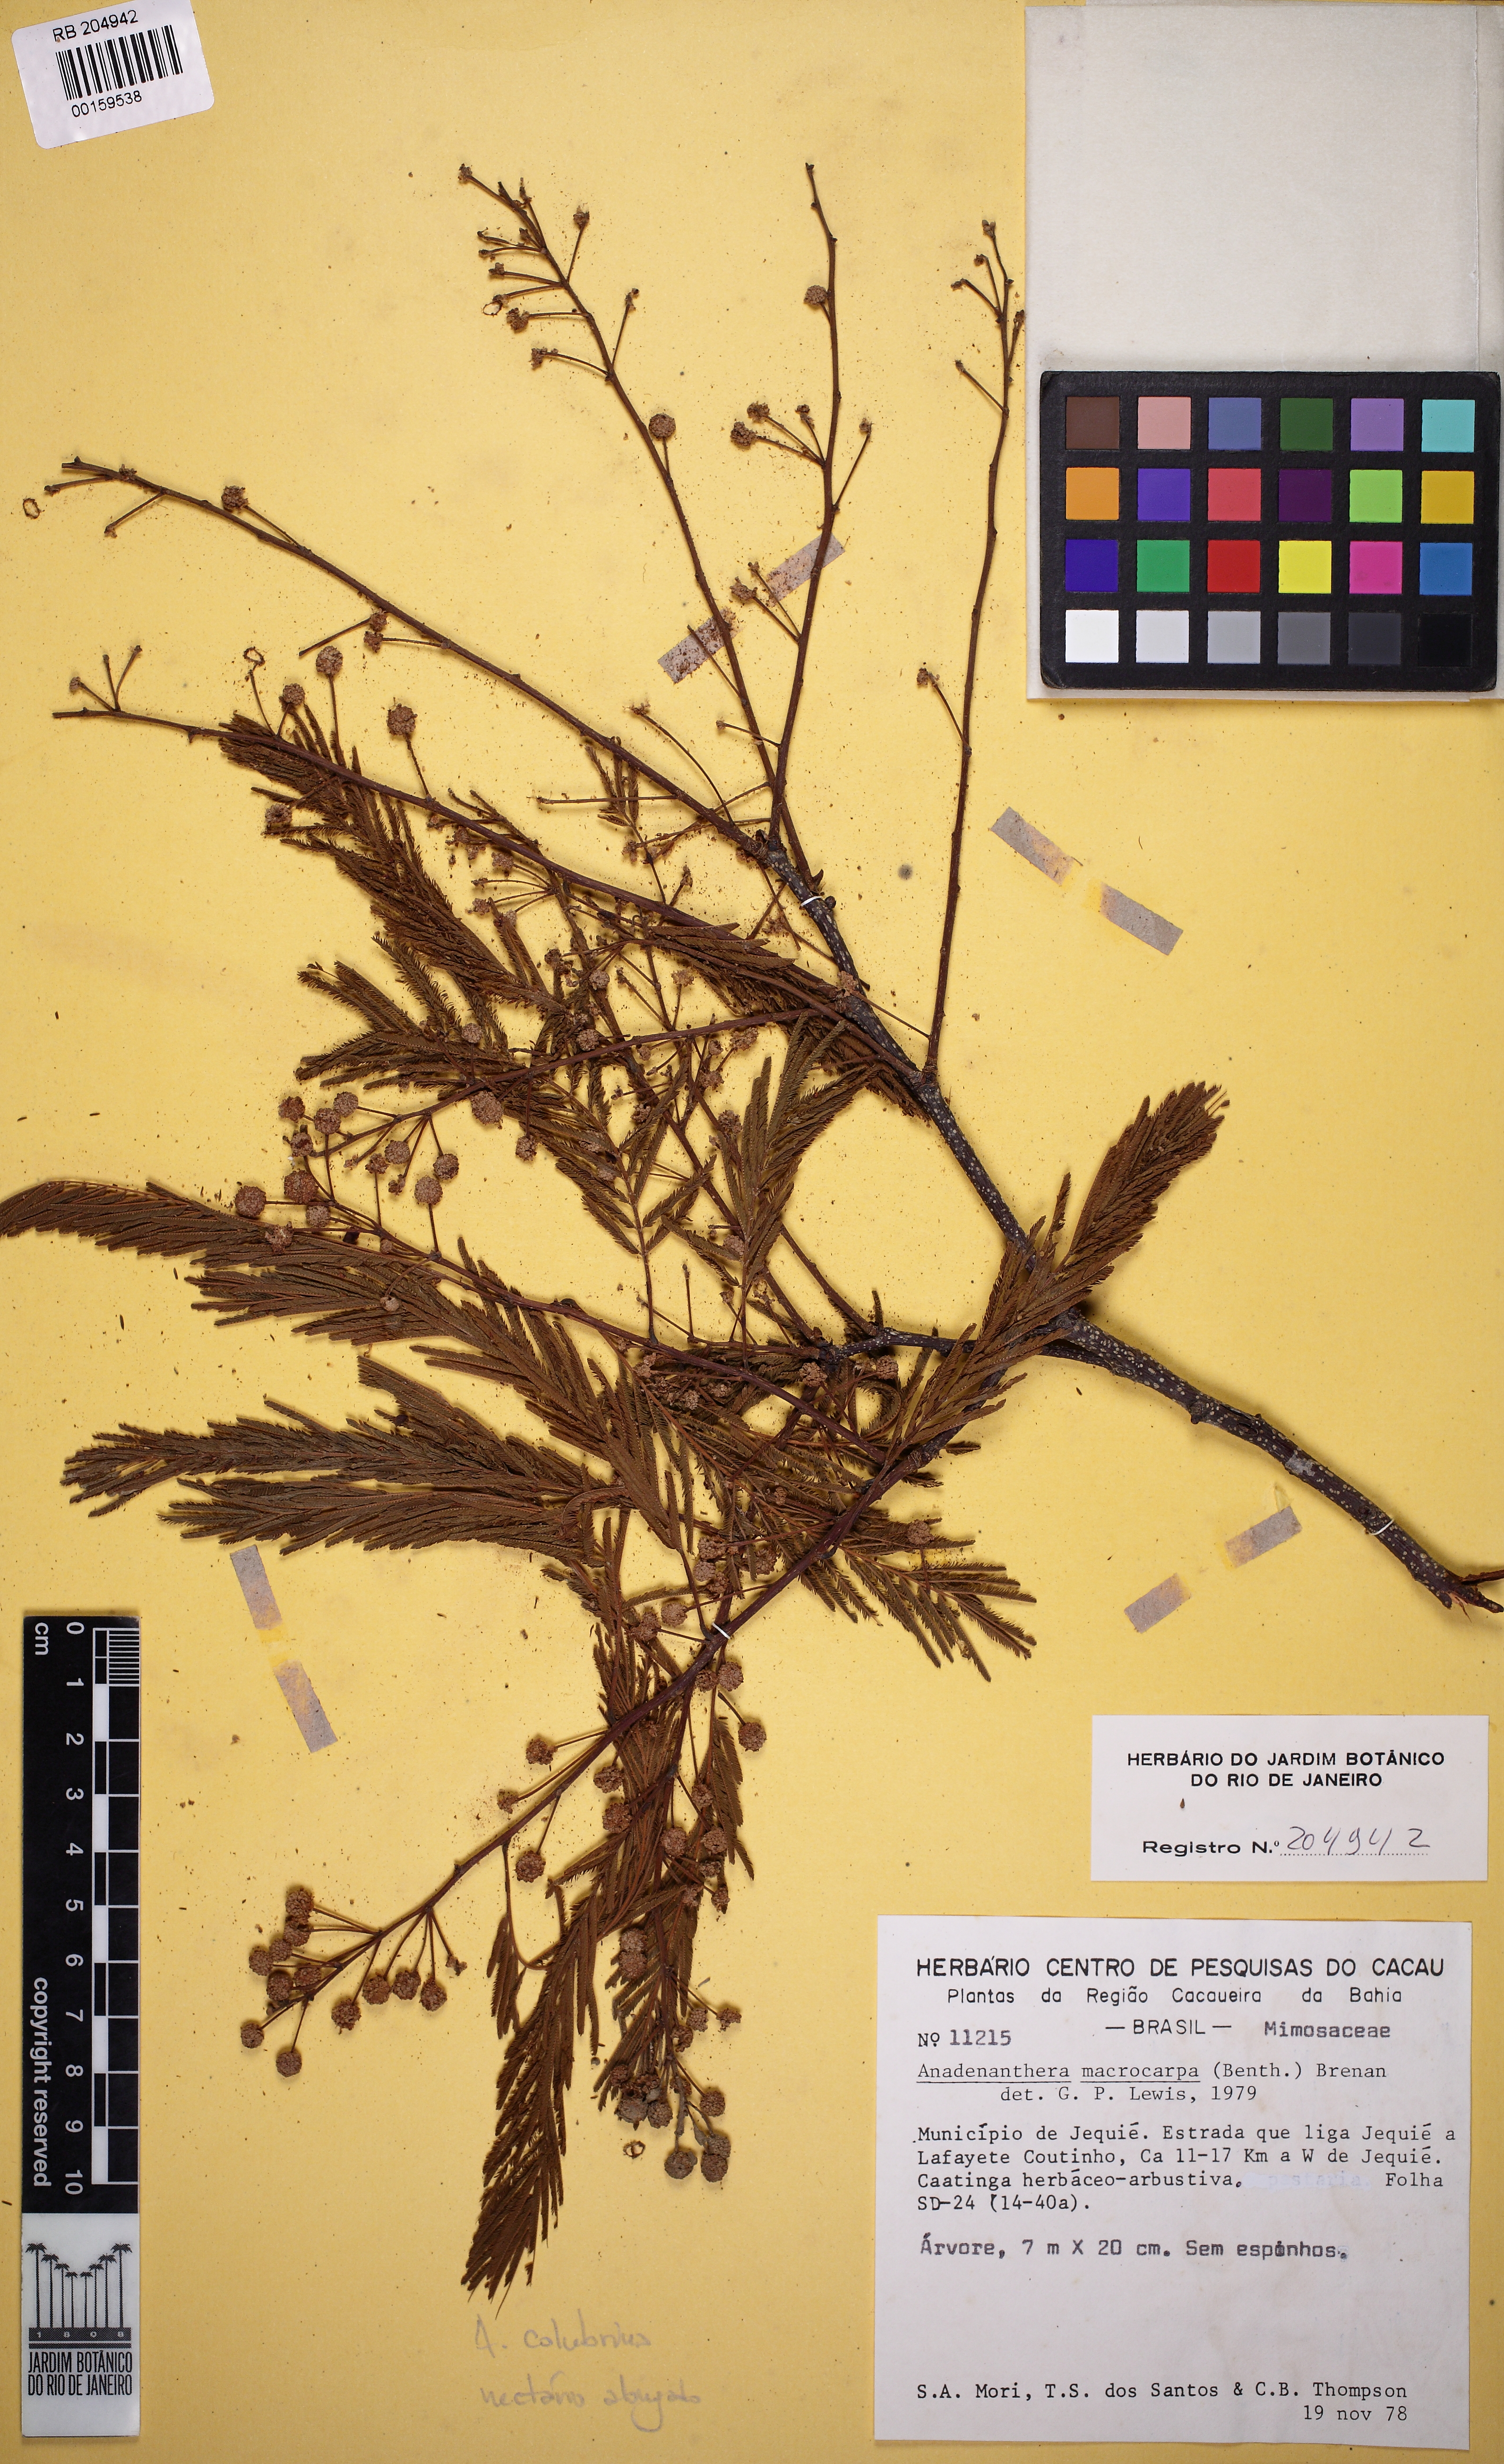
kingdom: Plantae
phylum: Tracheophyta
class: Magnoliopsida
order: Fabales
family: Fabaceae
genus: Anadenanthera
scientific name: Anadenanthera colubrina
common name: Curupay
